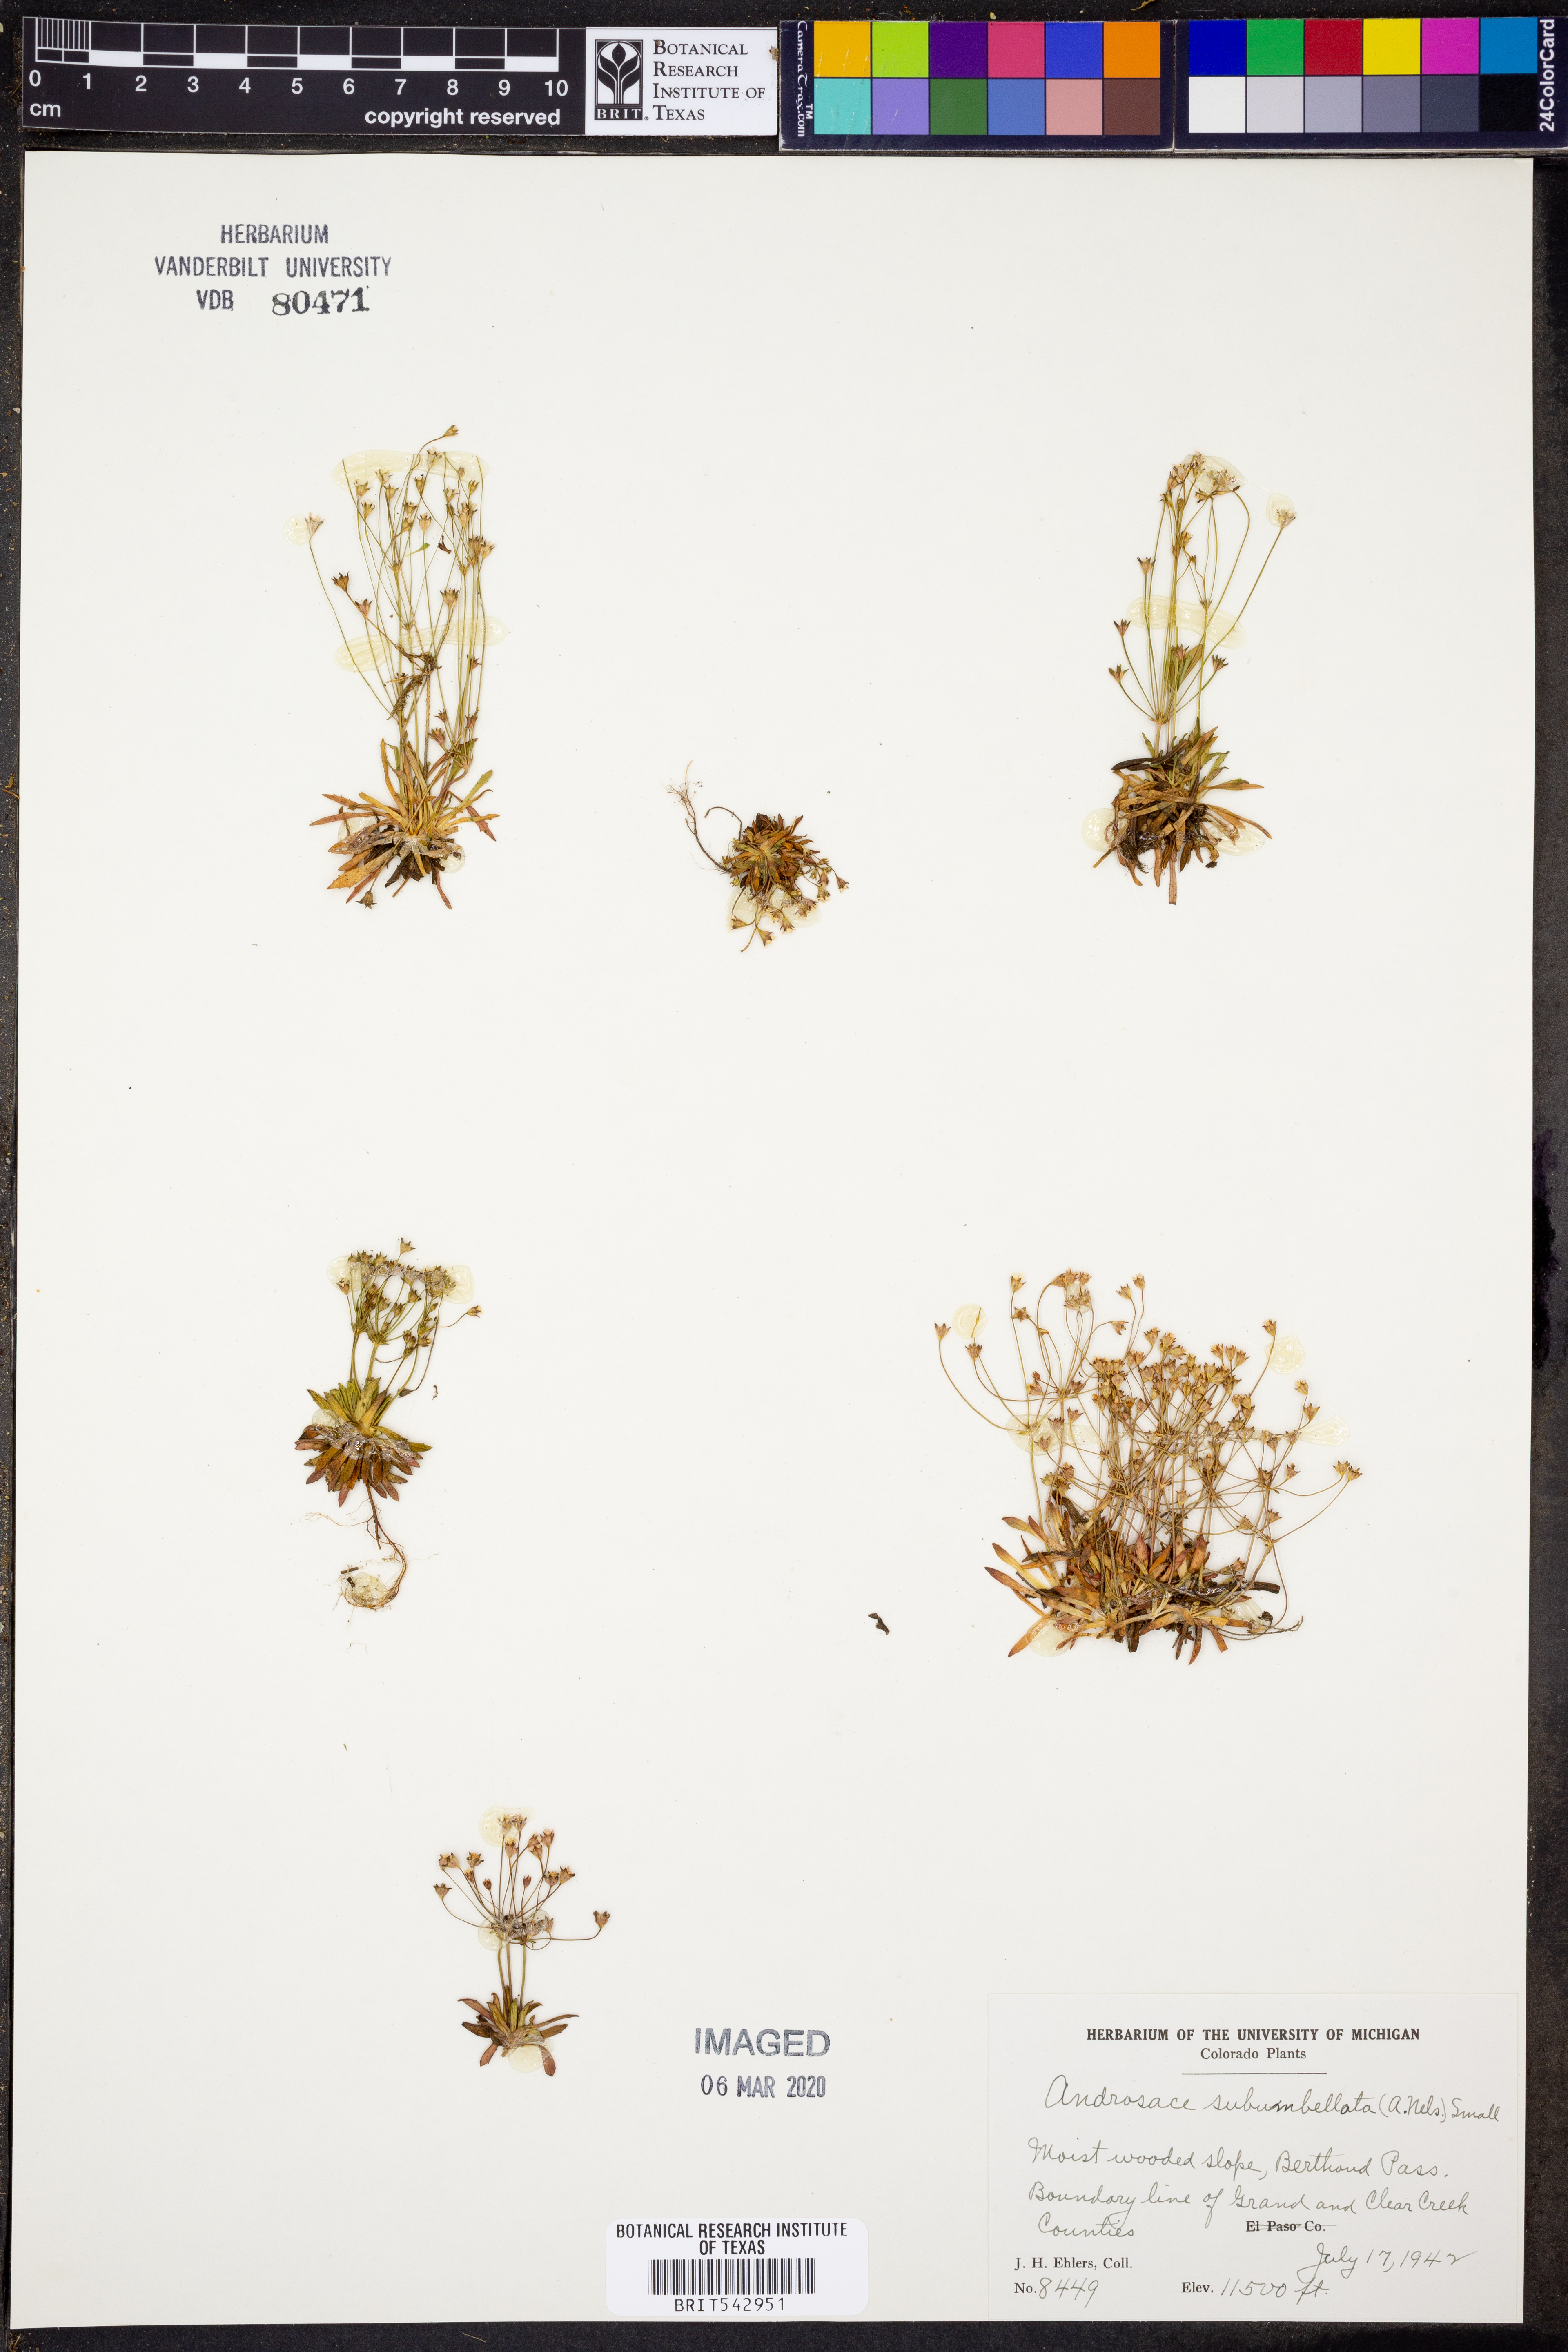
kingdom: Plantae
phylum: Tracheophyta
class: Magnoliopsida
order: Ericales
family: Primulaceae
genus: Androsace
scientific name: Androsace septentrionalis
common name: Hairy northern fairy-candelabra
